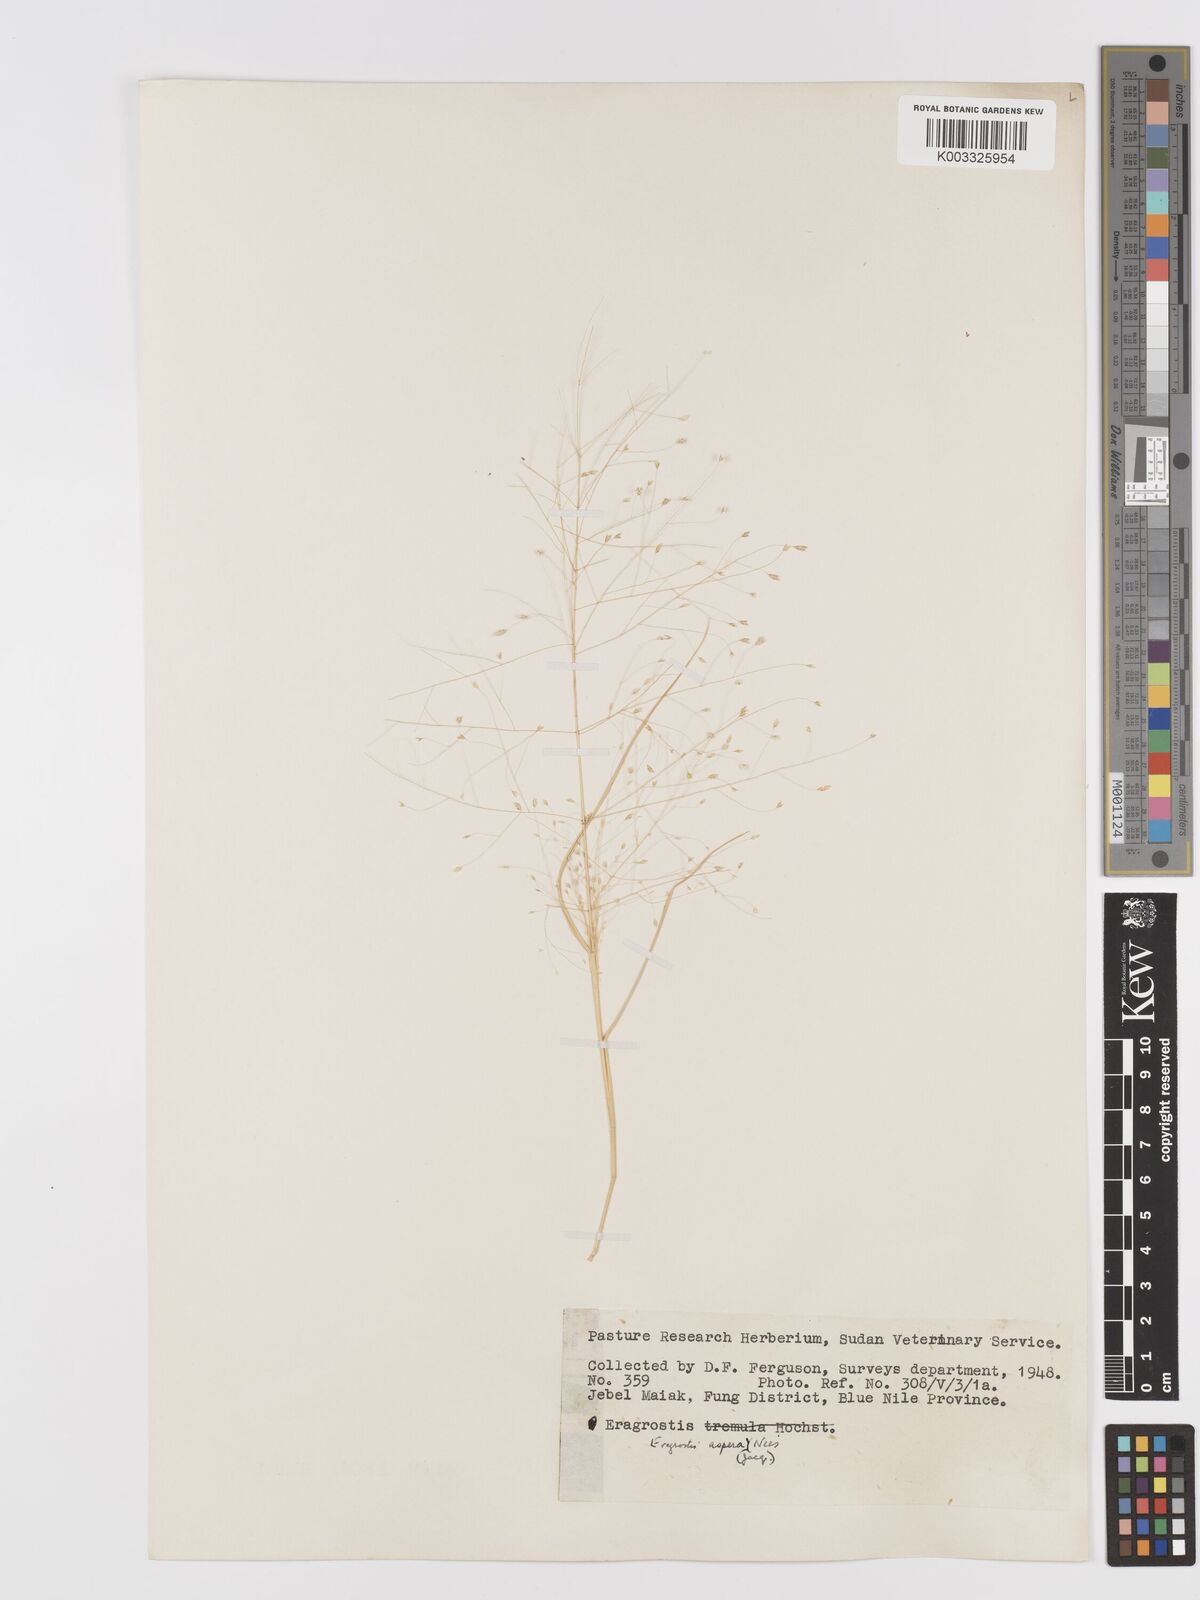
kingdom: Plantae
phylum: Tracheophyta
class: Liliopsida
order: Poales
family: Poaceae
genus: Eragrostis
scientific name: Eragrostis aspera
